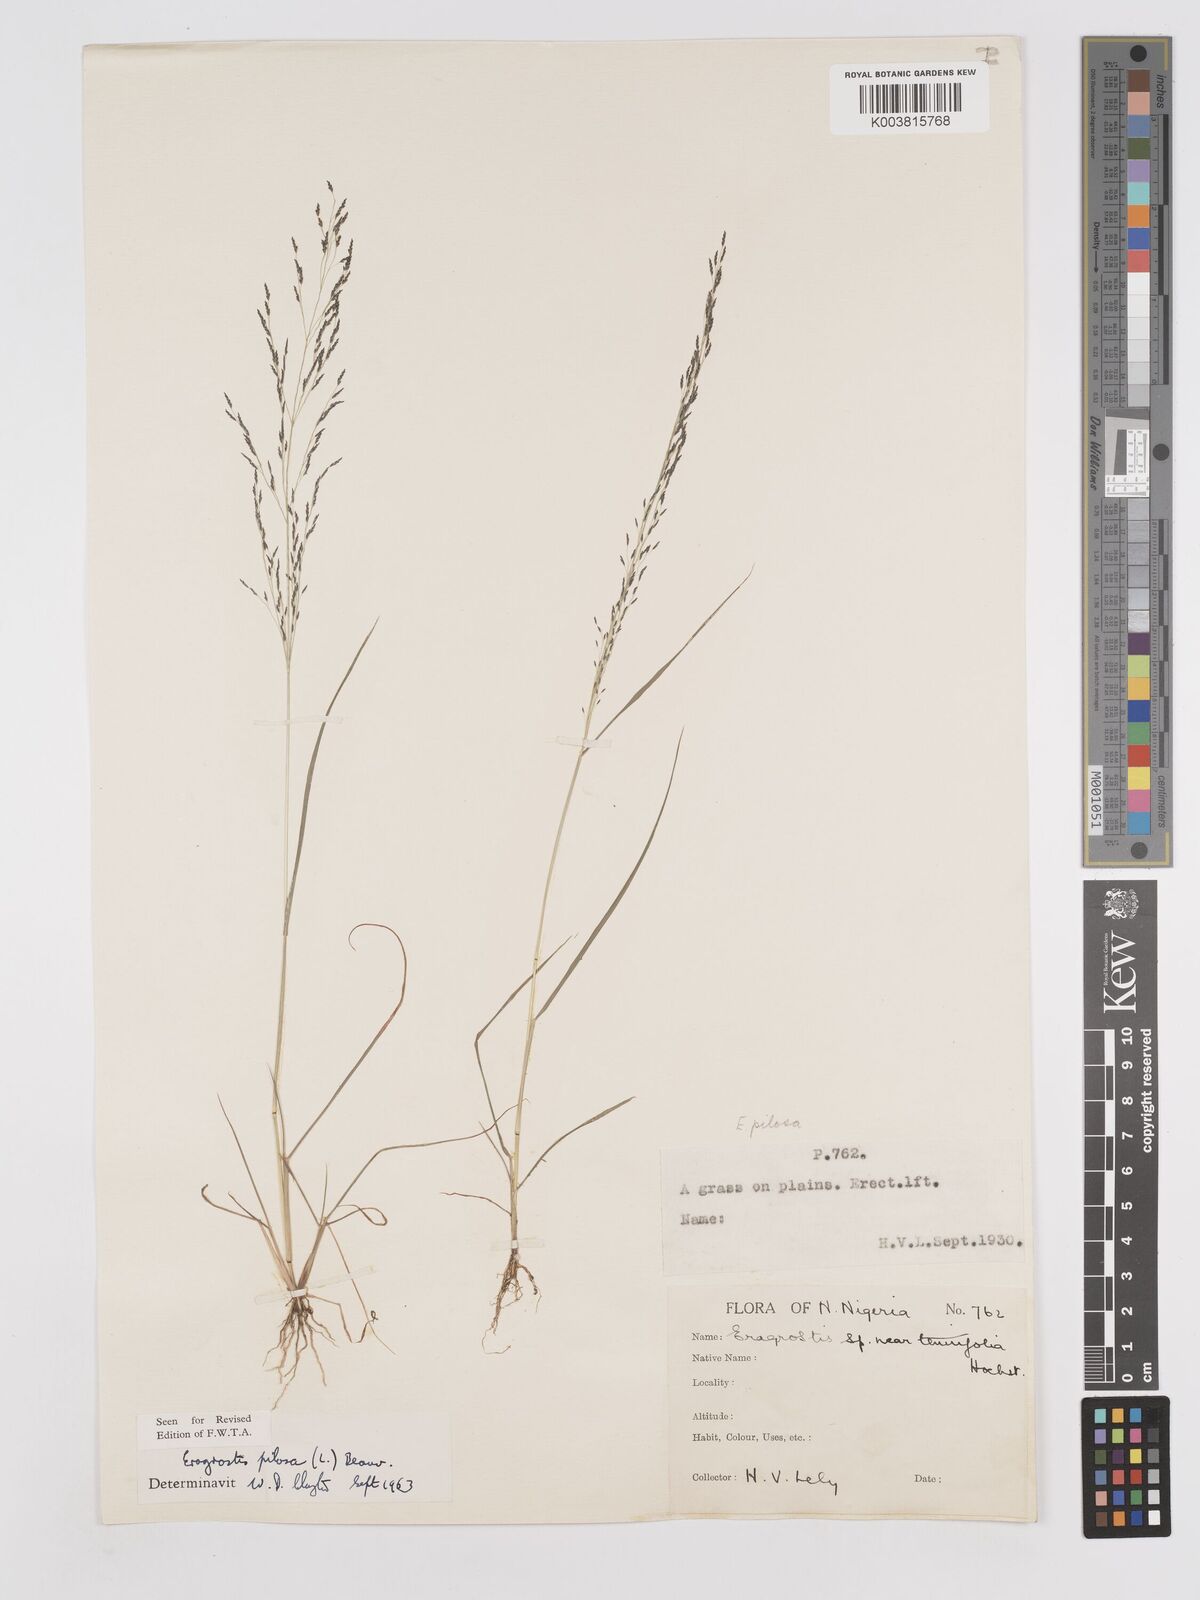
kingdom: Plantae
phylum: Tracheophyta
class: Liliopsida
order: Poales
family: Poaceae
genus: Eragrostis
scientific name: Eragrostis pilosa
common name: Indian lovegrass
